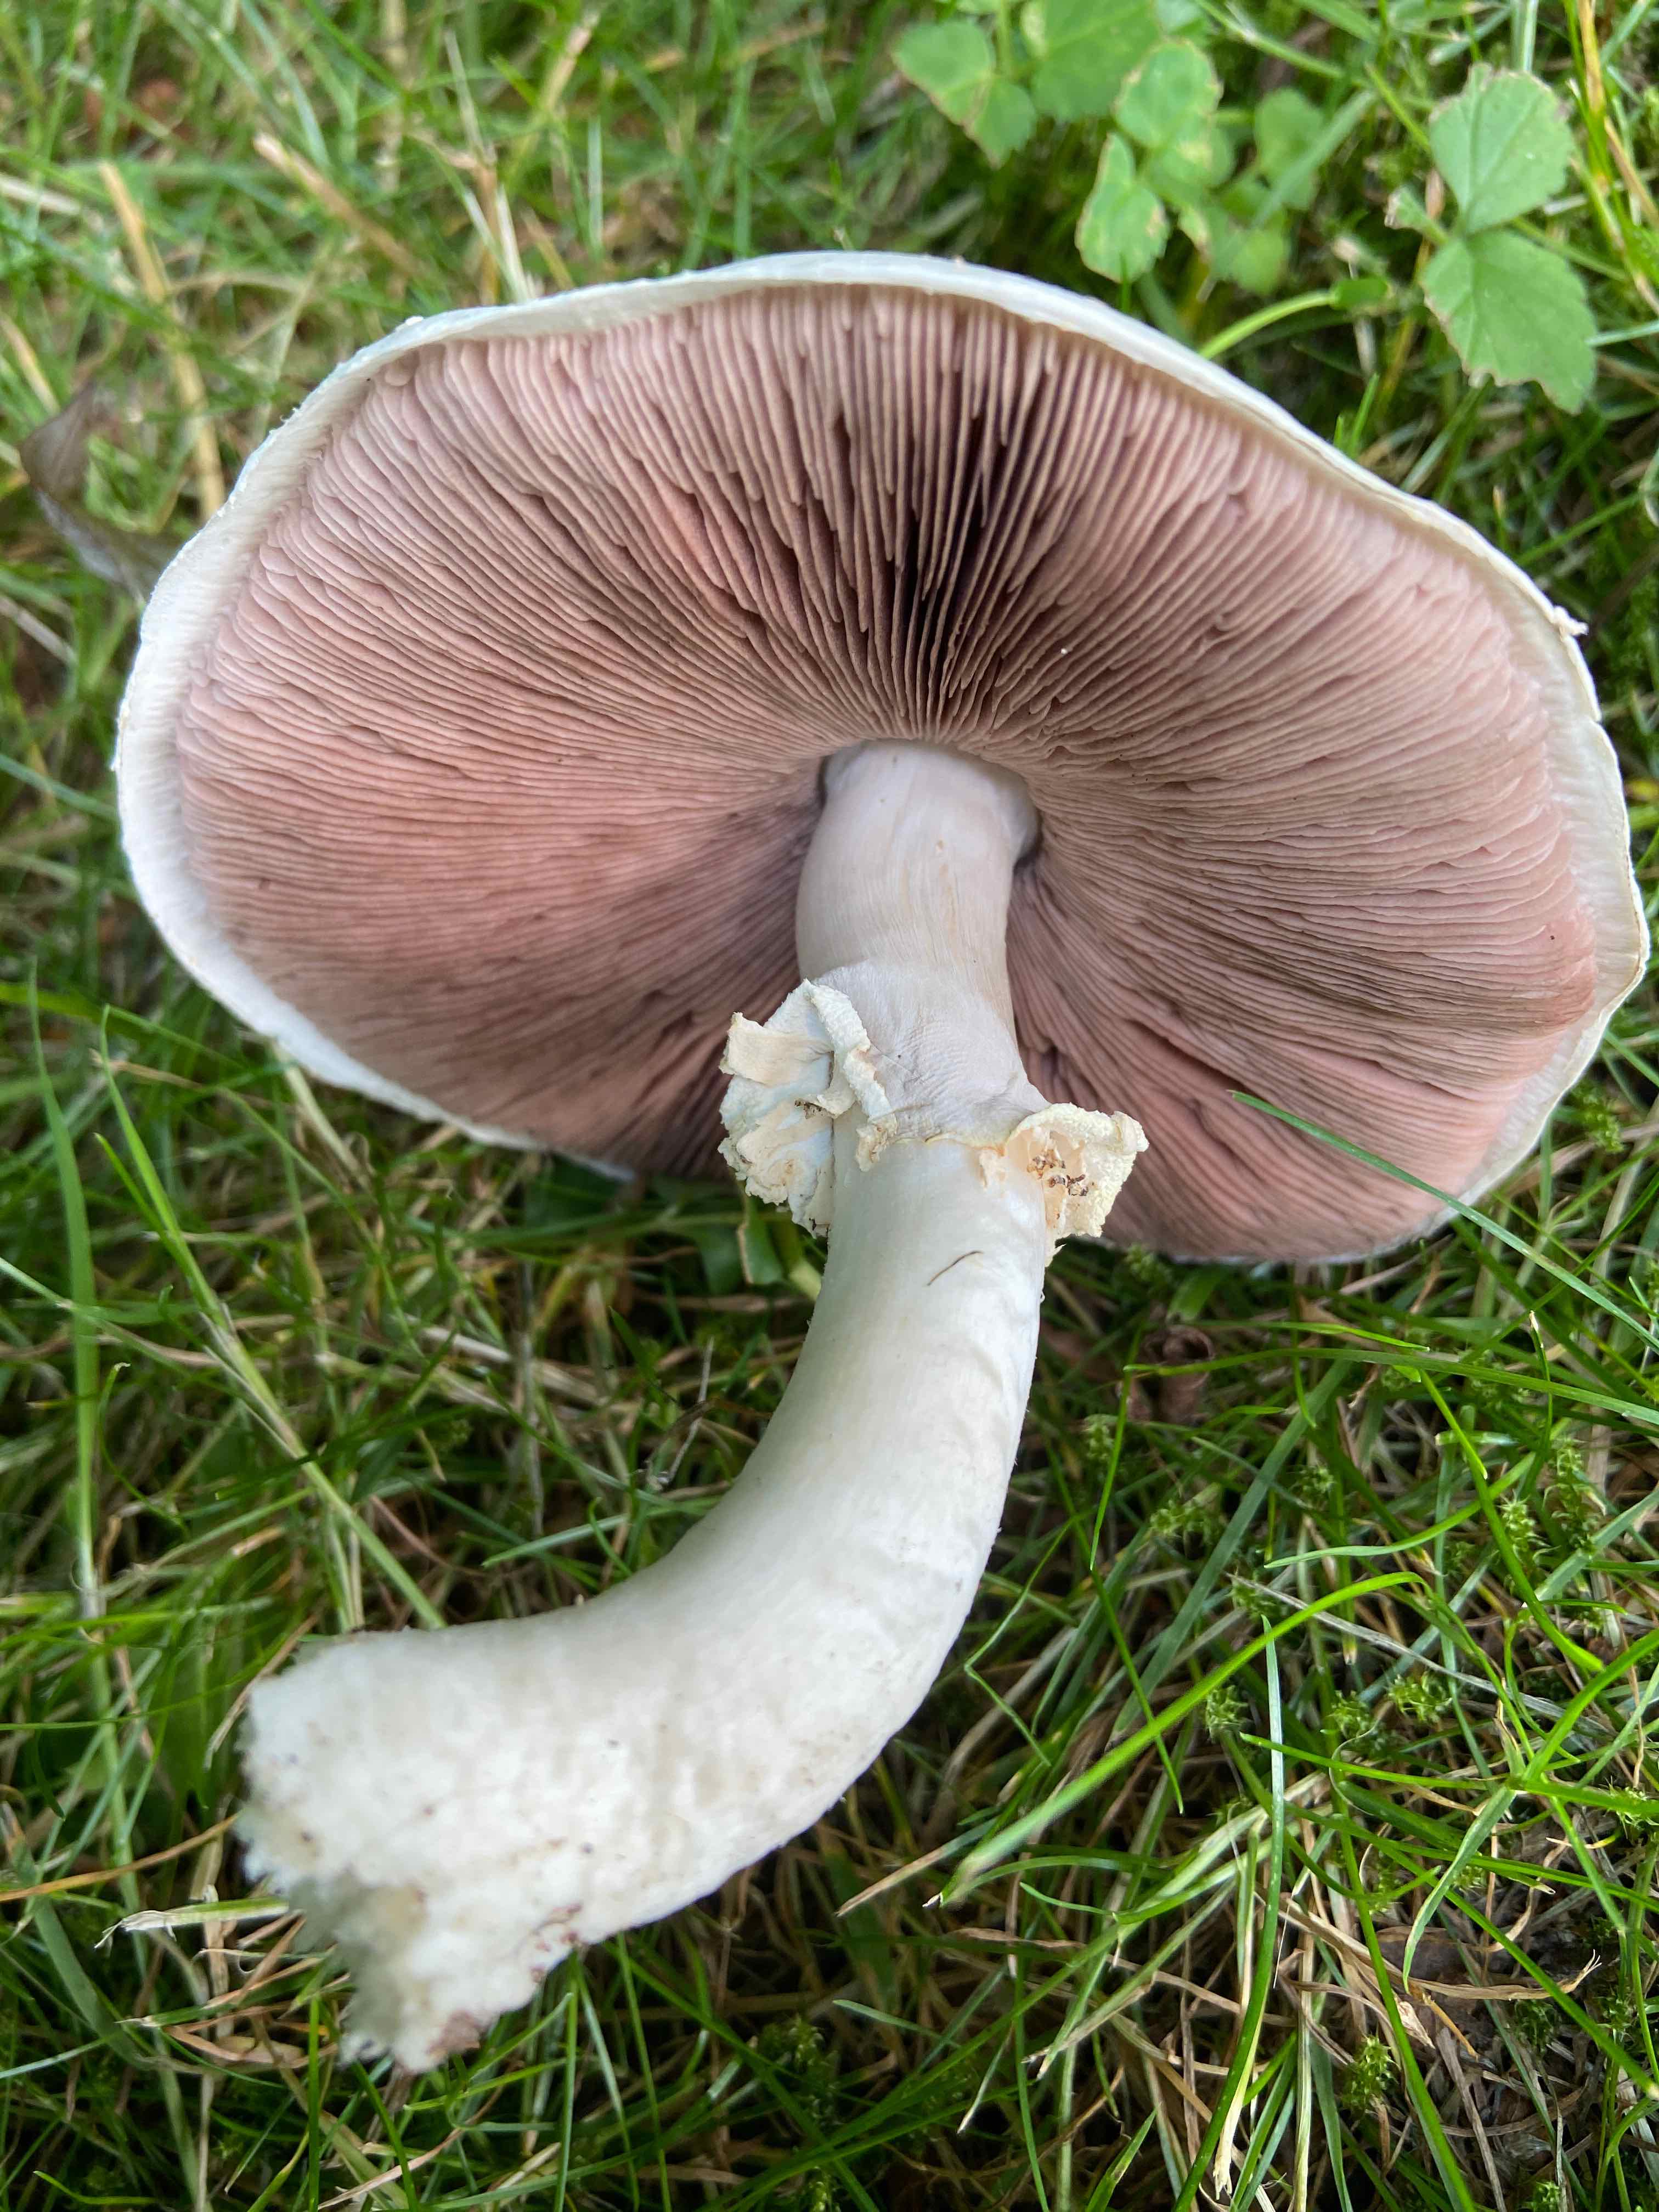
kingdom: Fungi
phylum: Basidiomycota
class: Agaricomycetes
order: Agaricales
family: Agaricaceae
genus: Agaricus
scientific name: Agaricus
